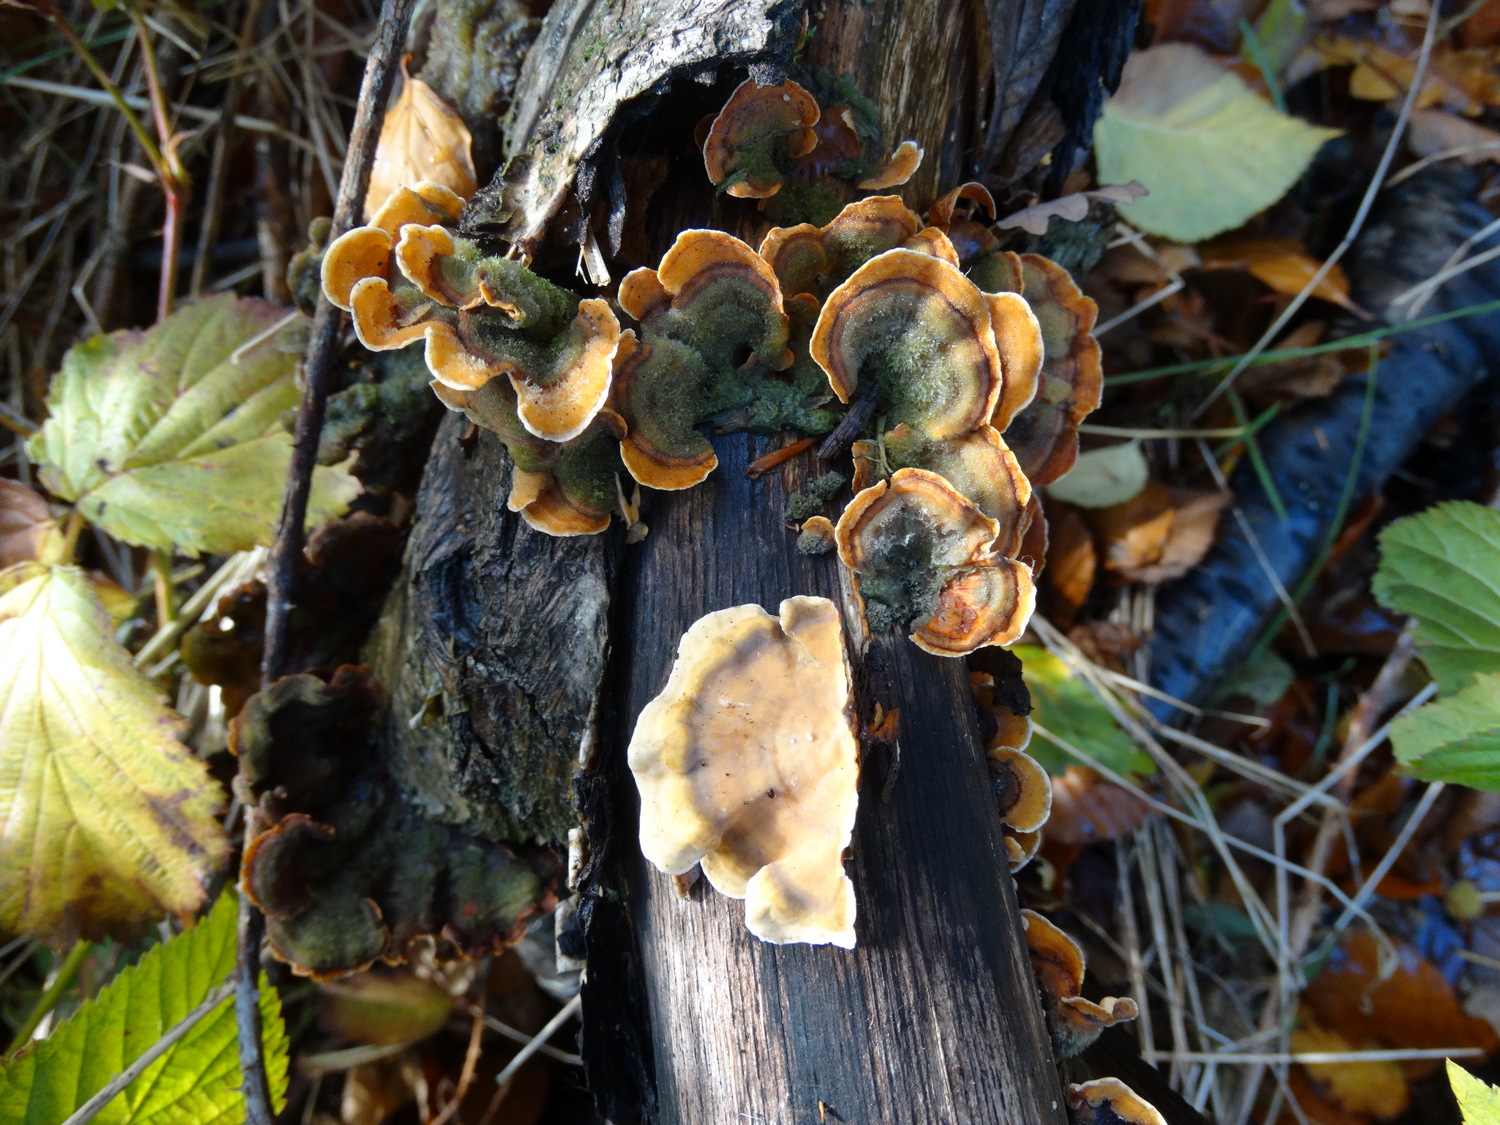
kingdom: Fungi
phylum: Basidiomycota
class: Agaricomycetes
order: Russulales
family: Stereaceae
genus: Stereum
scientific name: Stereum subtomentosum
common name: smuk lædersvamp
